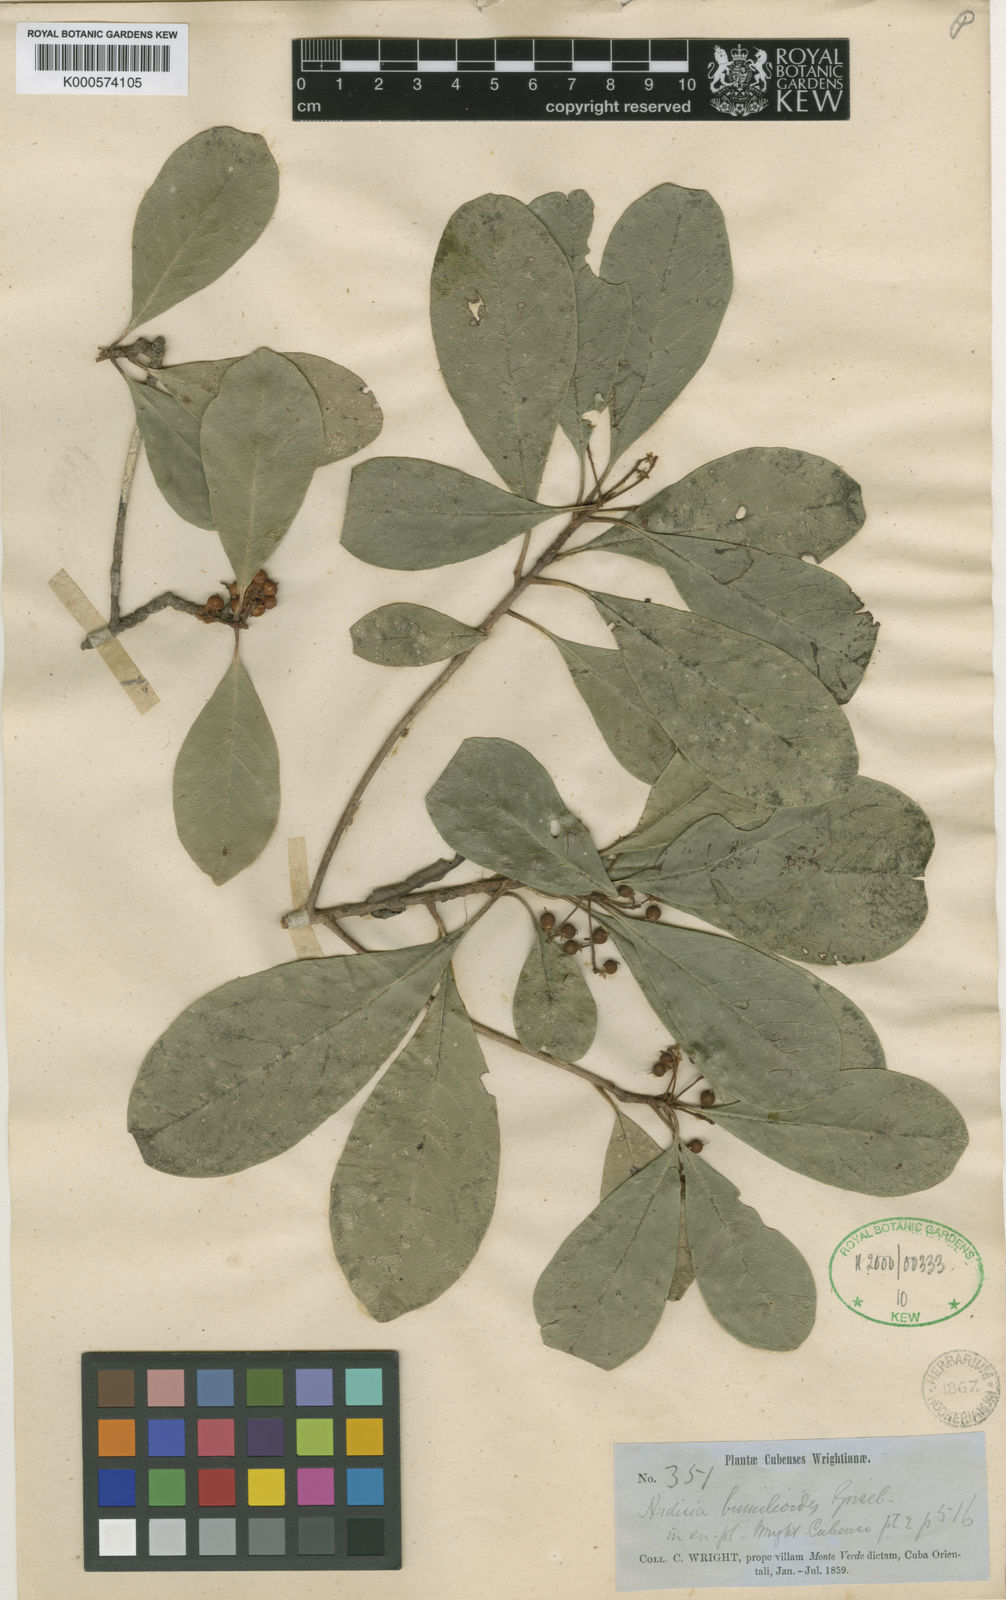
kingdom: Plantae
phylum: Tracheophyta
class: Magnoliopsida
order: Ericales
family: Primulaceae
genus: Wallenia
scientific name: Wallenia bumelioides
